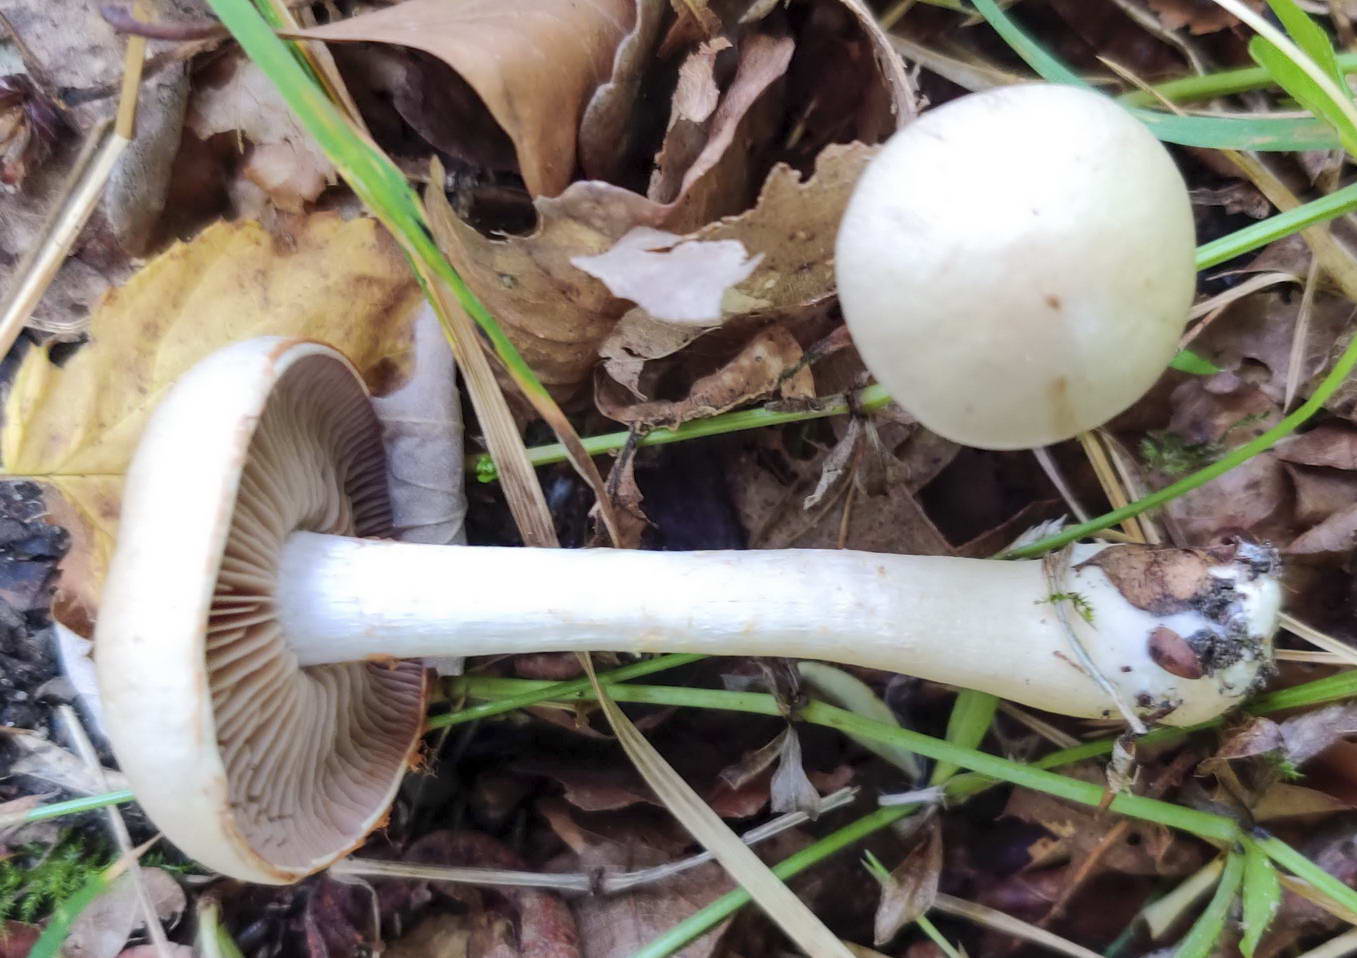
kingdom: Fungi
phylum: Basidiomycota
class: Agaricomycetes
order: Agaricales
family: Cortinariaceae
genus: Cortinarius
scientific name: Cortinarius
